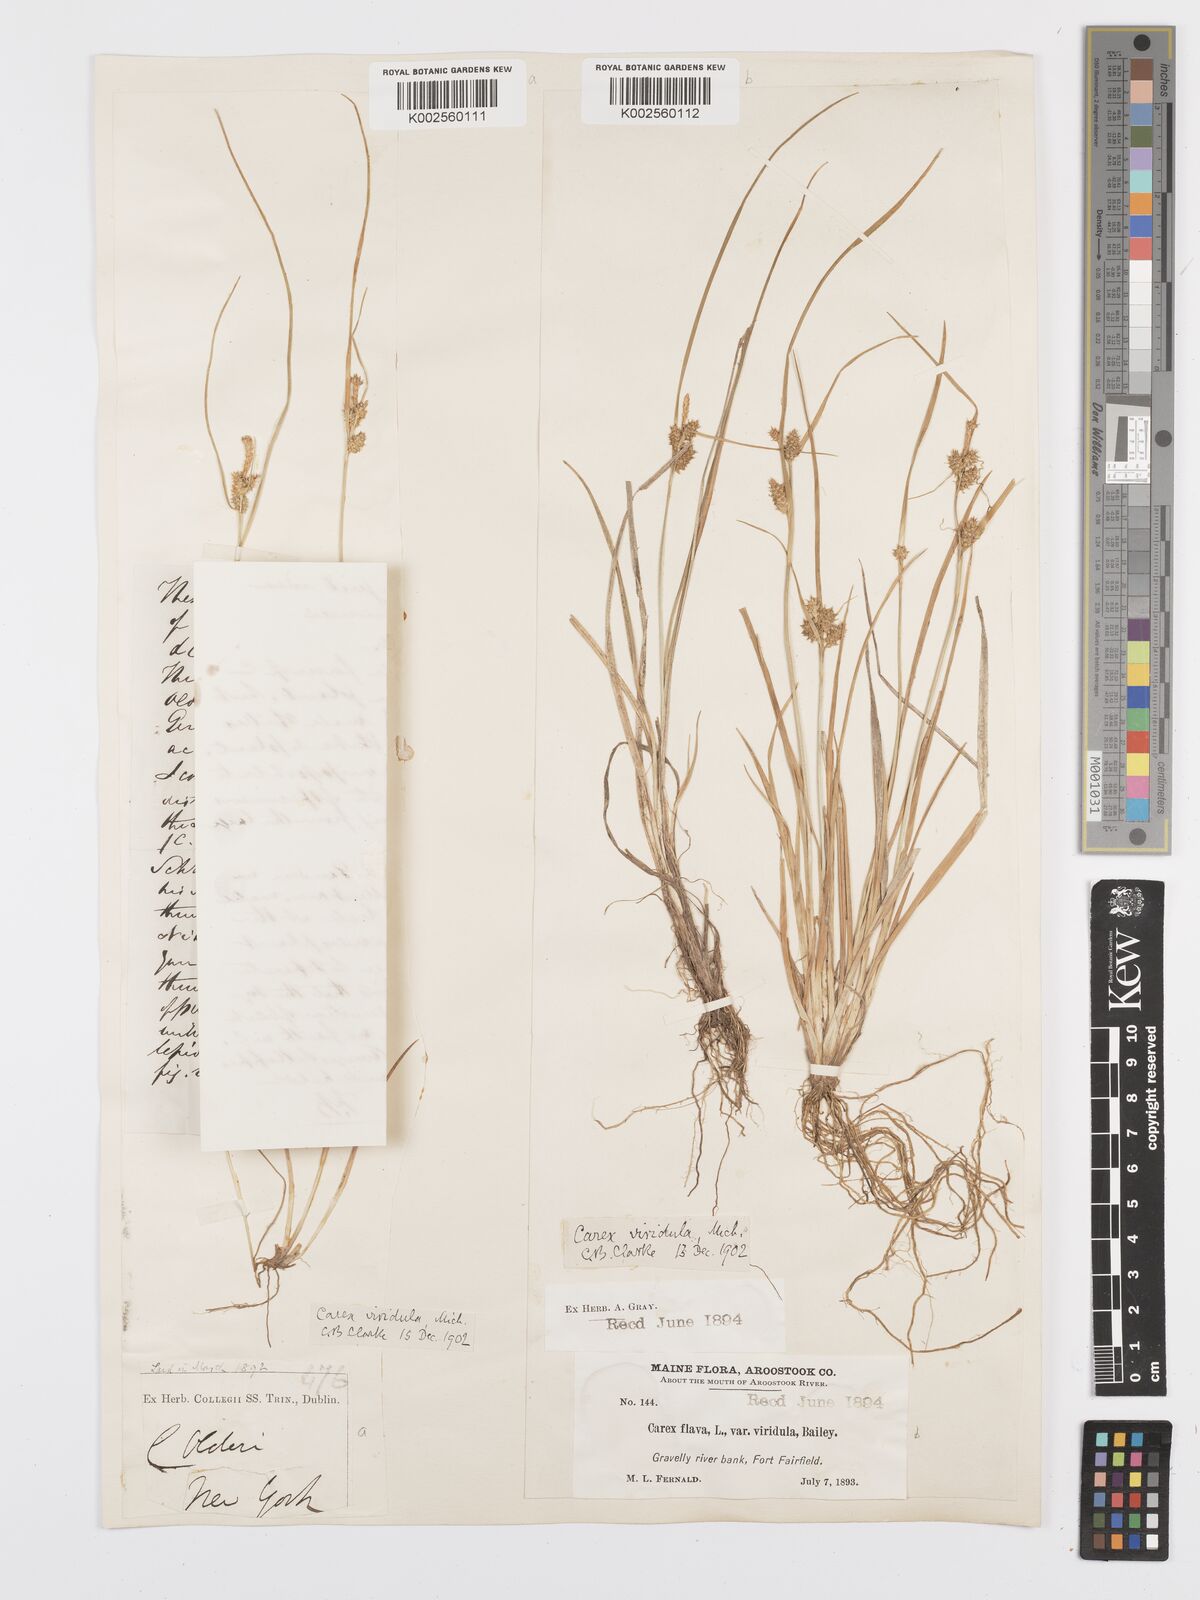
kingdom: Plantae
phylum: Tracheophyta
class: Liliopsida
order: Poales
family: Cyperaceae
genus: Carex
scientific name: Carex oederi
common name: Common & small-fruited yellow-sedge
